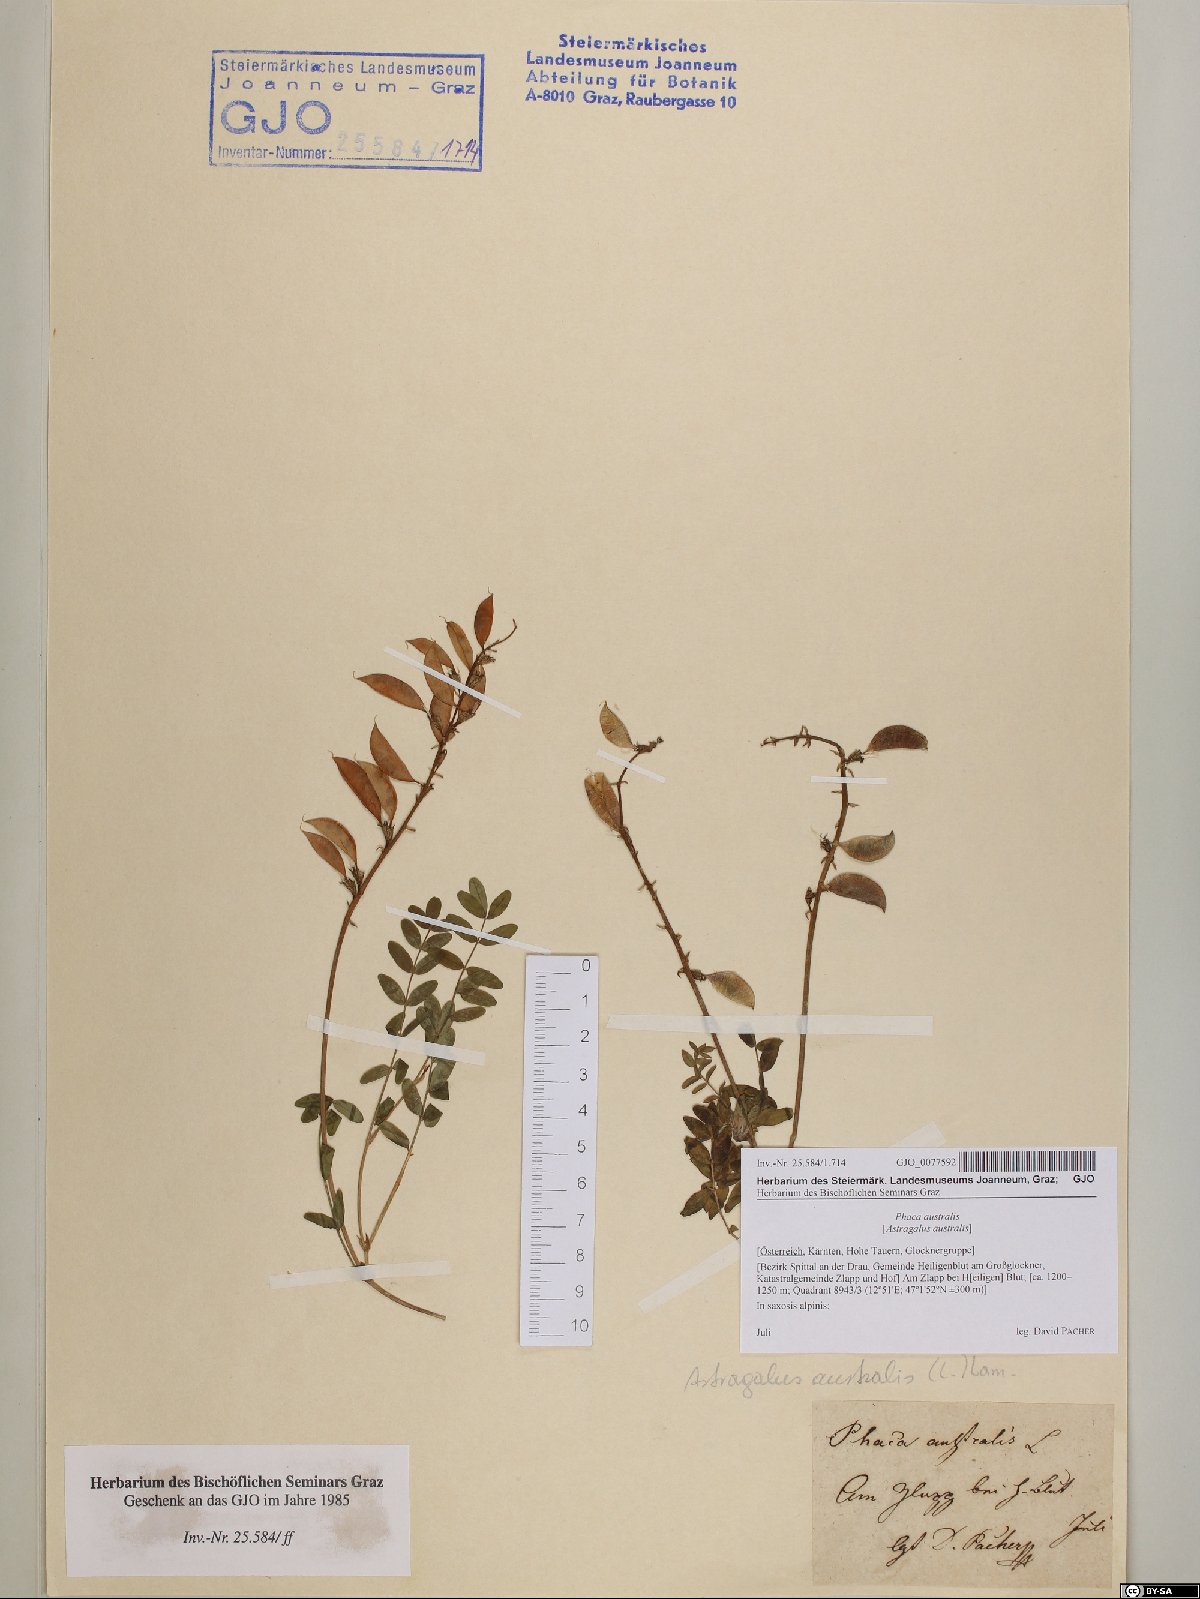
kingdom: Plantae
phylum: Tracheophyta
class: Magnoliopsida
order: Fabales
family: Fabaceae
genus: Astragalus
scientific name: Astragalus australis
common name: Indian milk-vetch
